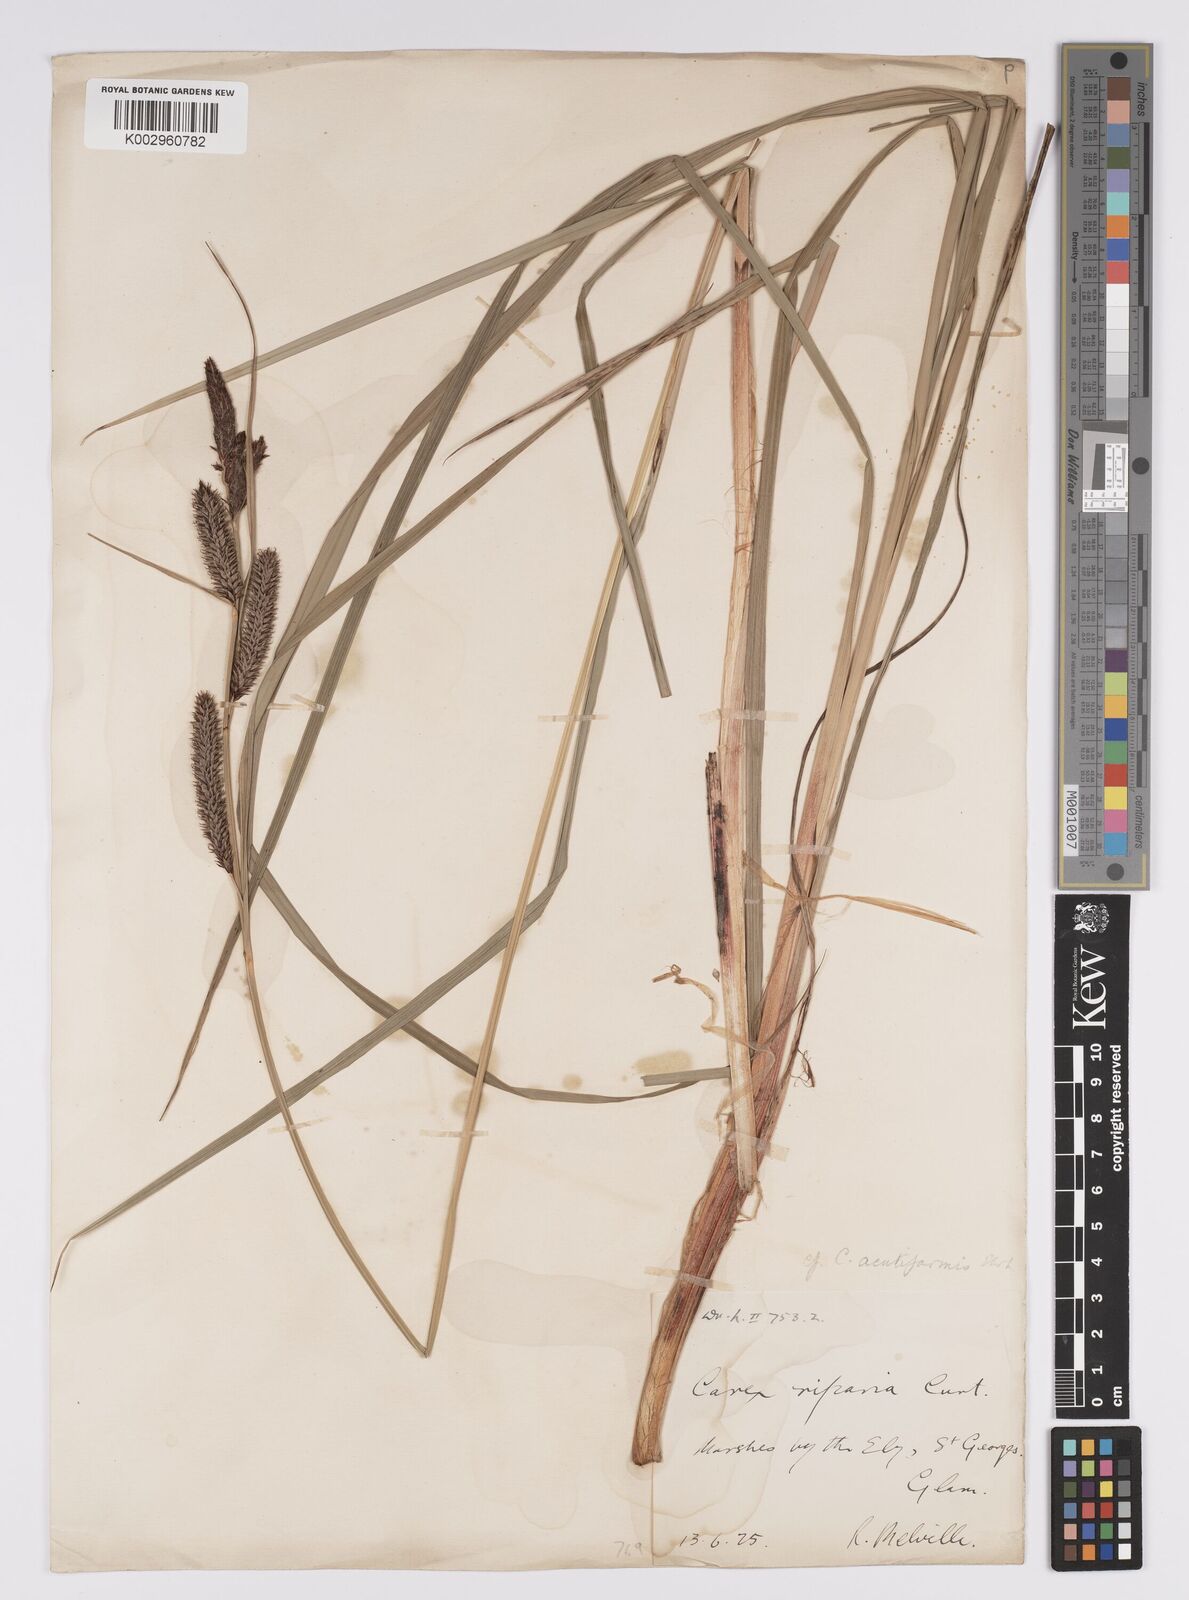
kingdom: Plantae
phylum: Tracheophyta
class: Liliopsida
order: Poales
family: Cyperaceae
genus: Carex
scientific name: Carex acutiformis
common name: Lesser pond-sedge
